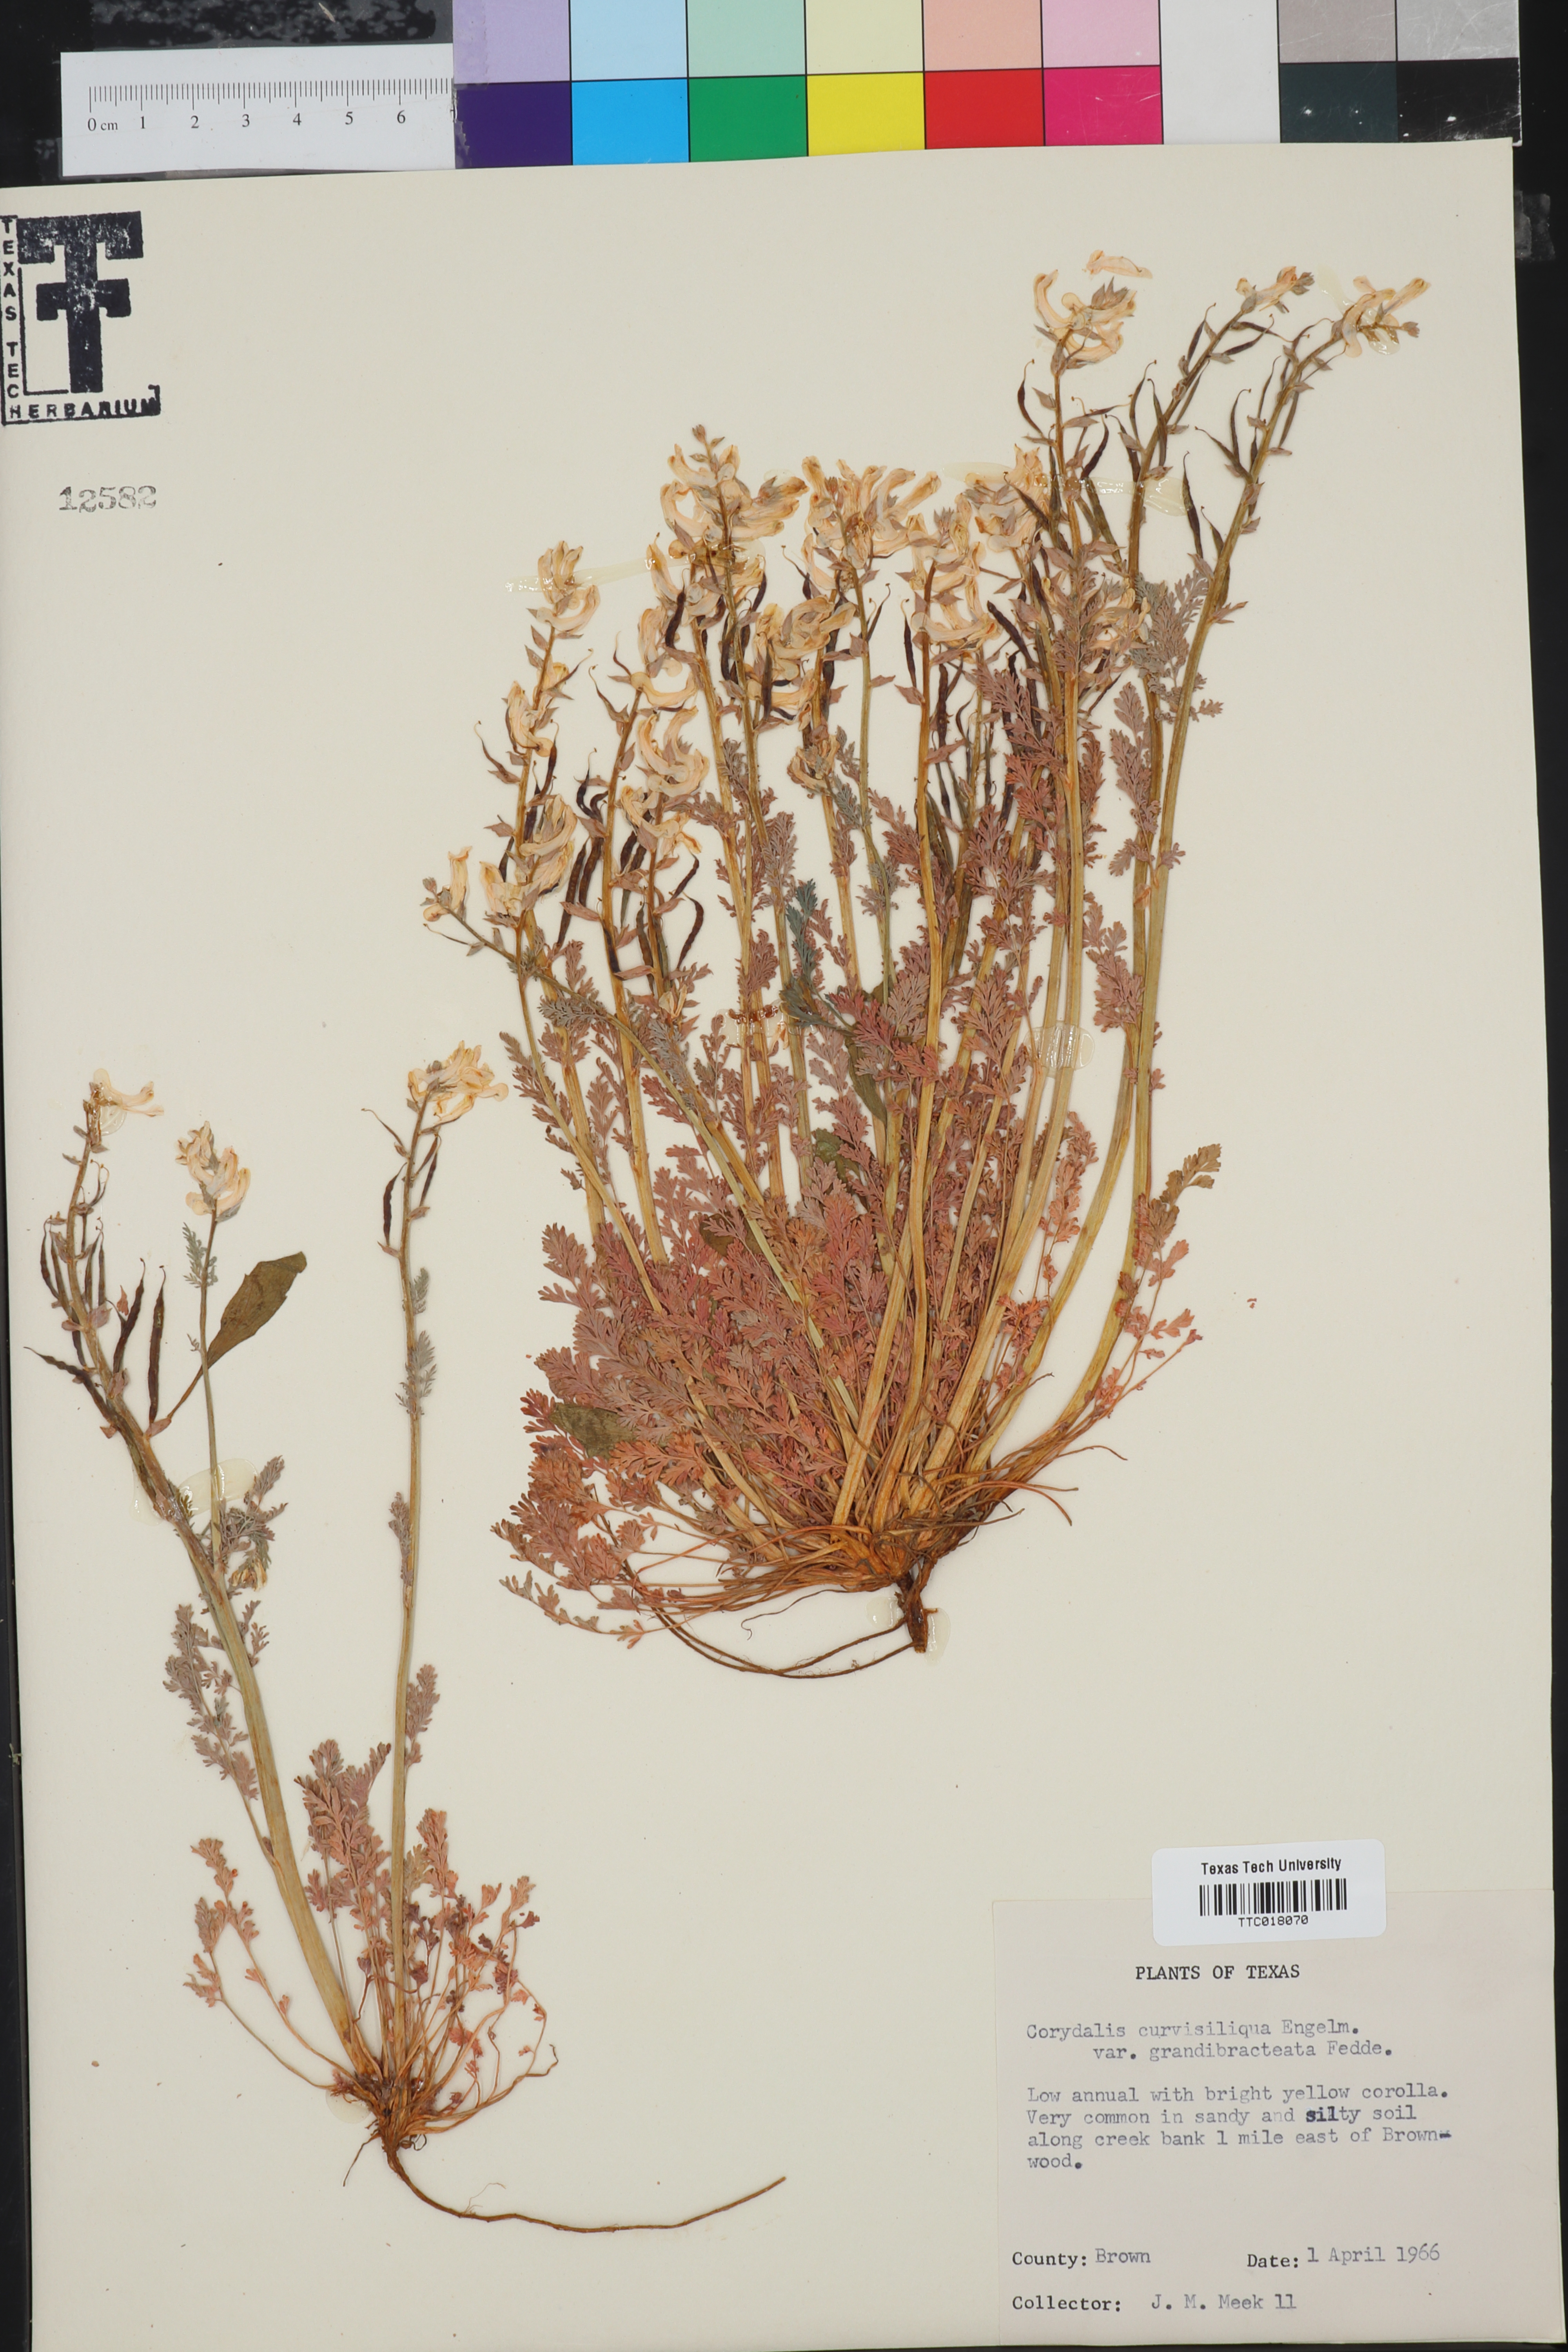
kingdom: Plantae
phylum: Tracheophyta
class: Magnoliopsida
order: Ranunculales
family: Papaveraceae
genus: Corydalis
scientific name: Corydalis curvisiliqua
